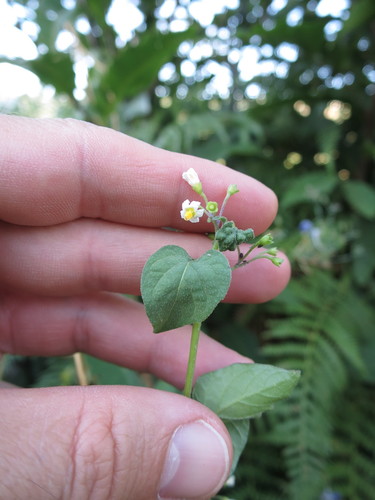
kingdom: Plantae
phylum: Tracheophyta
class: Magnoliopsida
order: Solanales
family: Solanaceae
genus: Solanum
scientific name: Solanum nigrum
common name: Black nightshade
